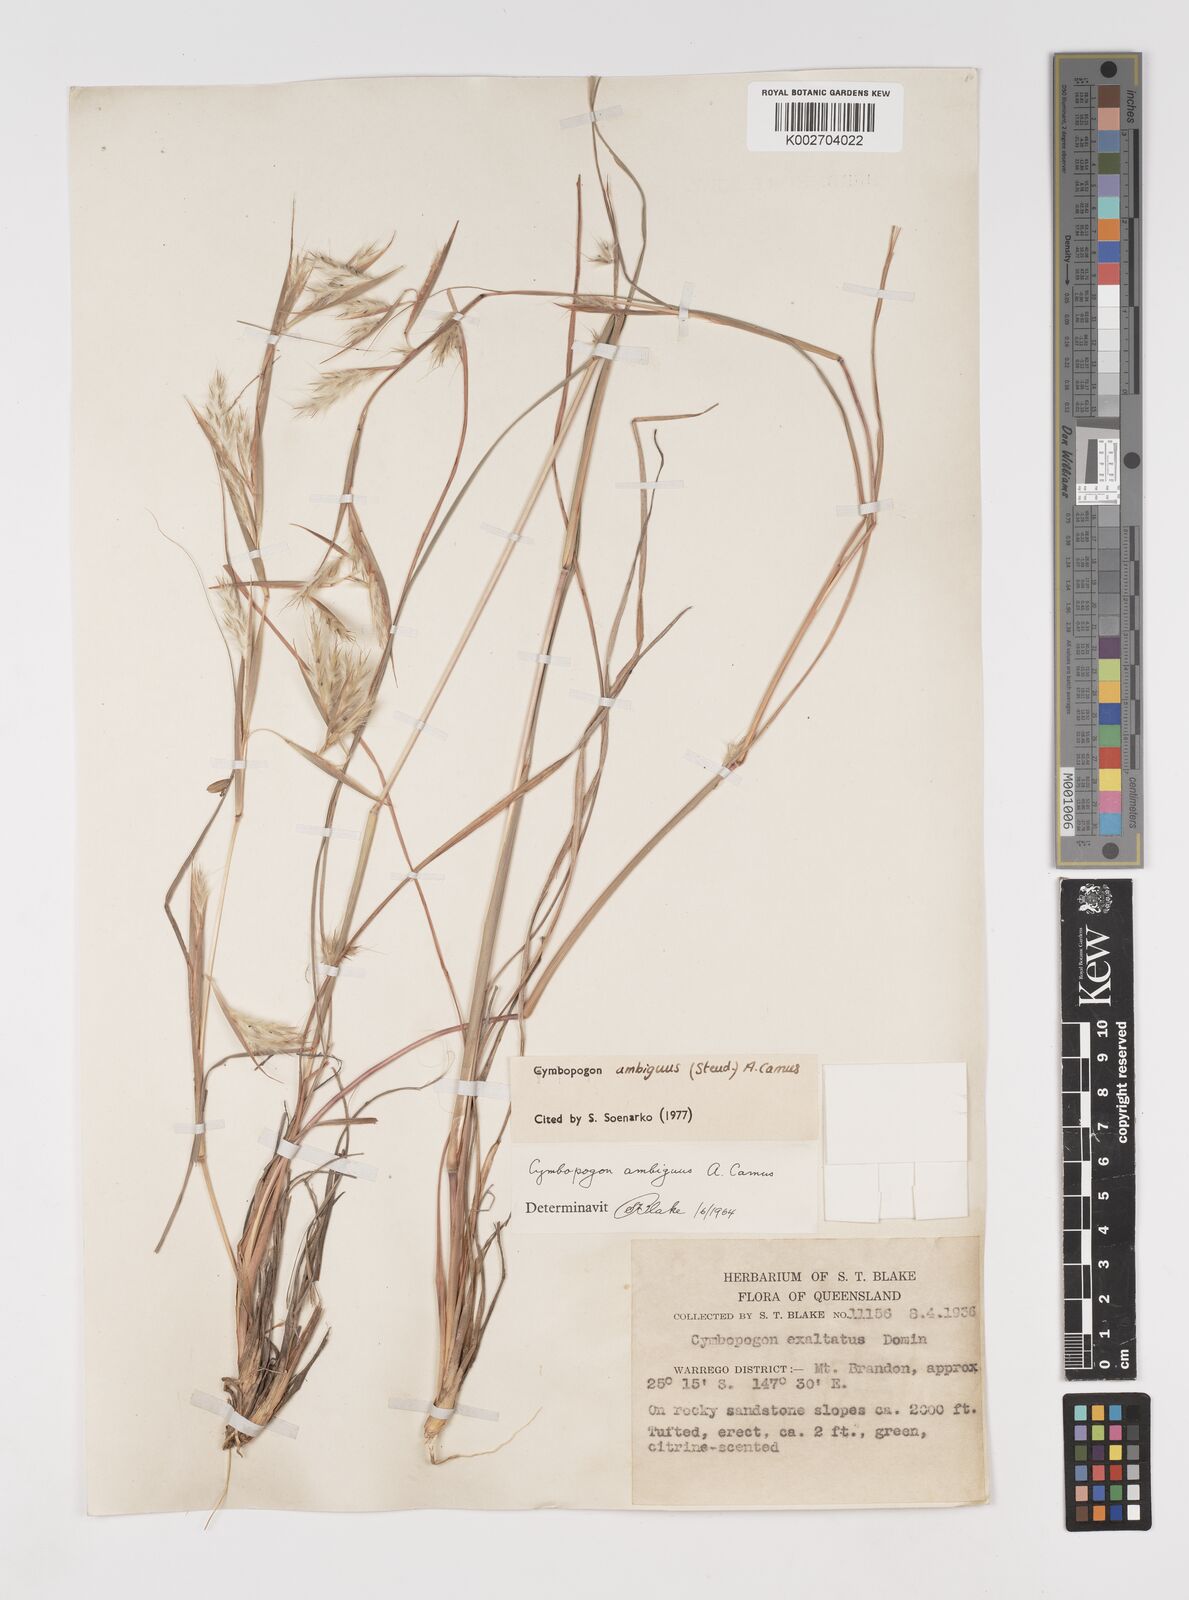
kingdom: Plantae
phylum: Tracheophyta
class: Liliopsida
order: Poales
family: Poaceae
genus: Cymbopogon
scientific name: Cymbopogon ambiguus
